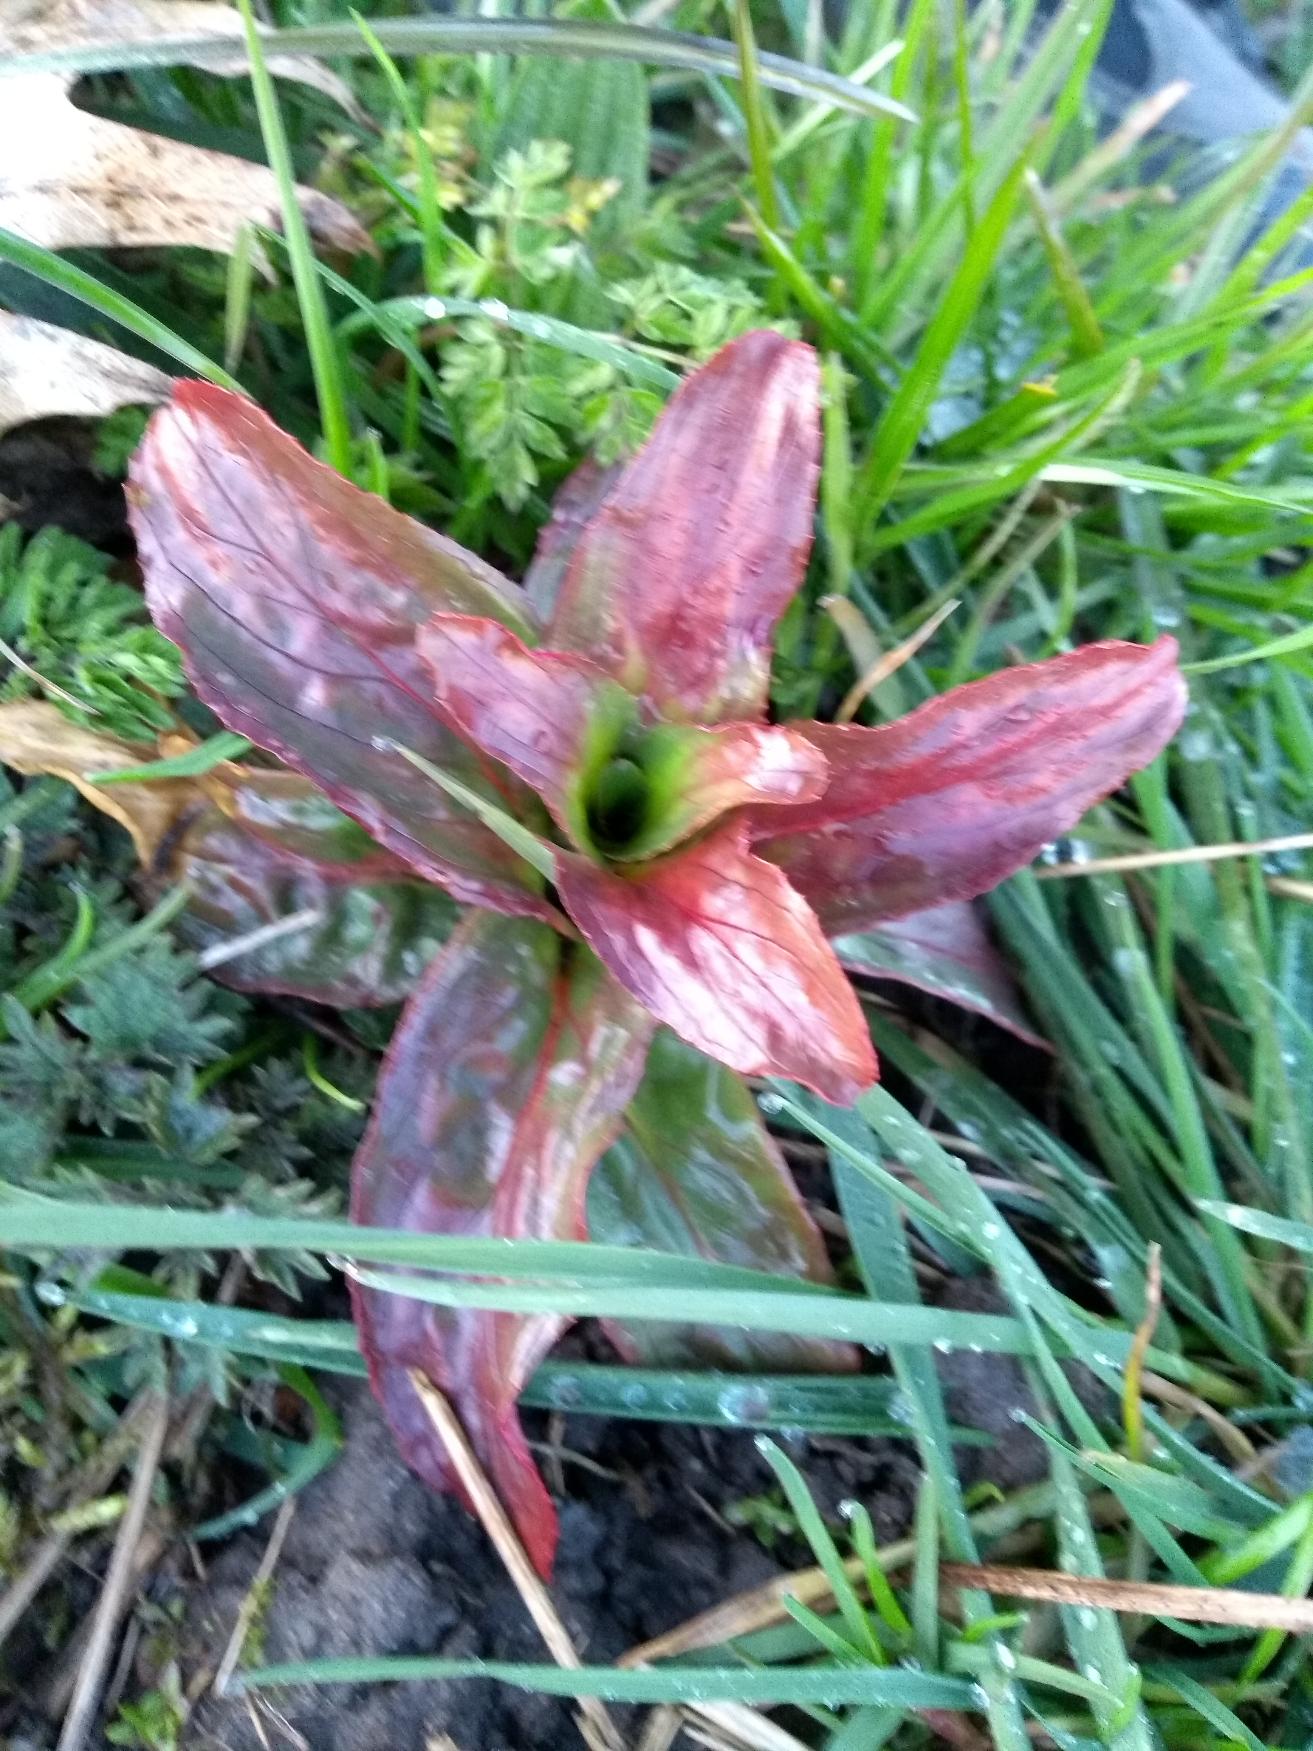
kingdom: Plantae
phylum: Tracheophyta
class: Magnoliopsida
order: Myrtales
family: Onagraceae
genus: Epilobium
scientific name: Epilobium hirsutum
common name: Lådden dueurt
